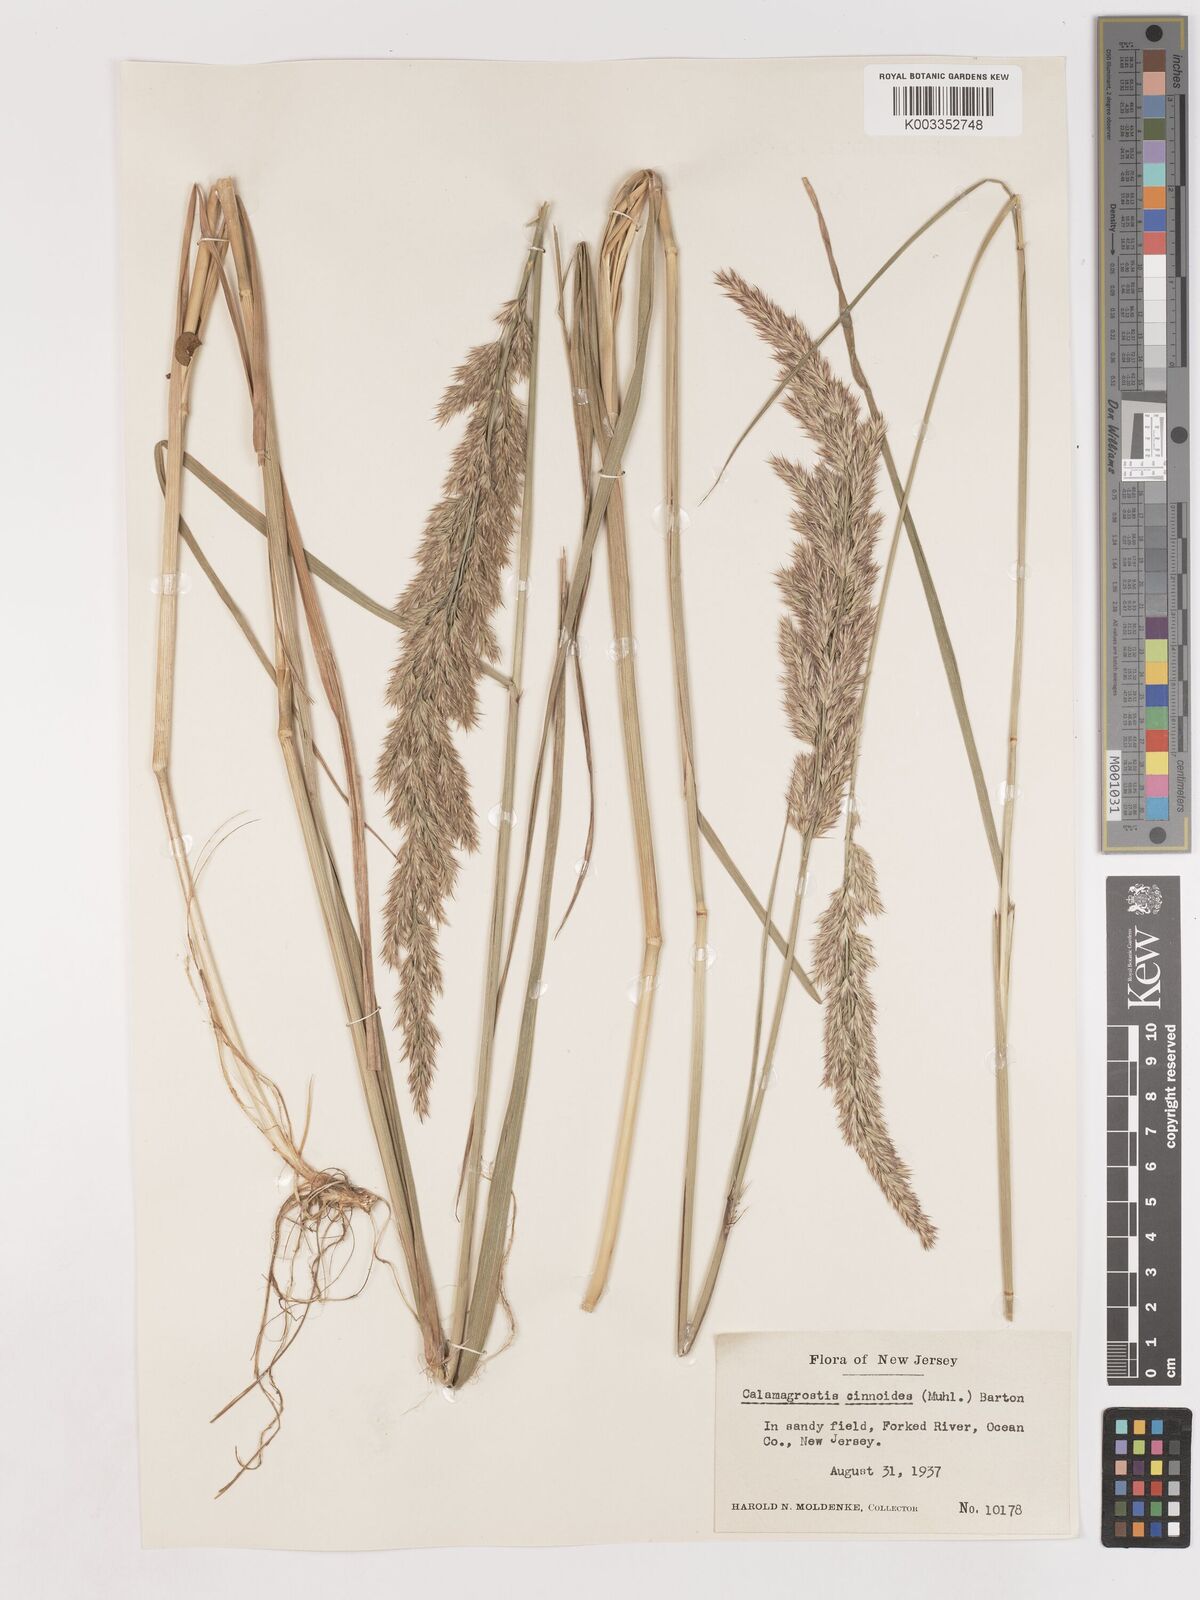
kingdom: Plantae
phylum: Tracheophyta
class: Liliopsida
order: Poales
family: Poaceae
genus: Calamagrostis
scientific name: Calamagrostis canadensis
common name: Canada bluejoint
